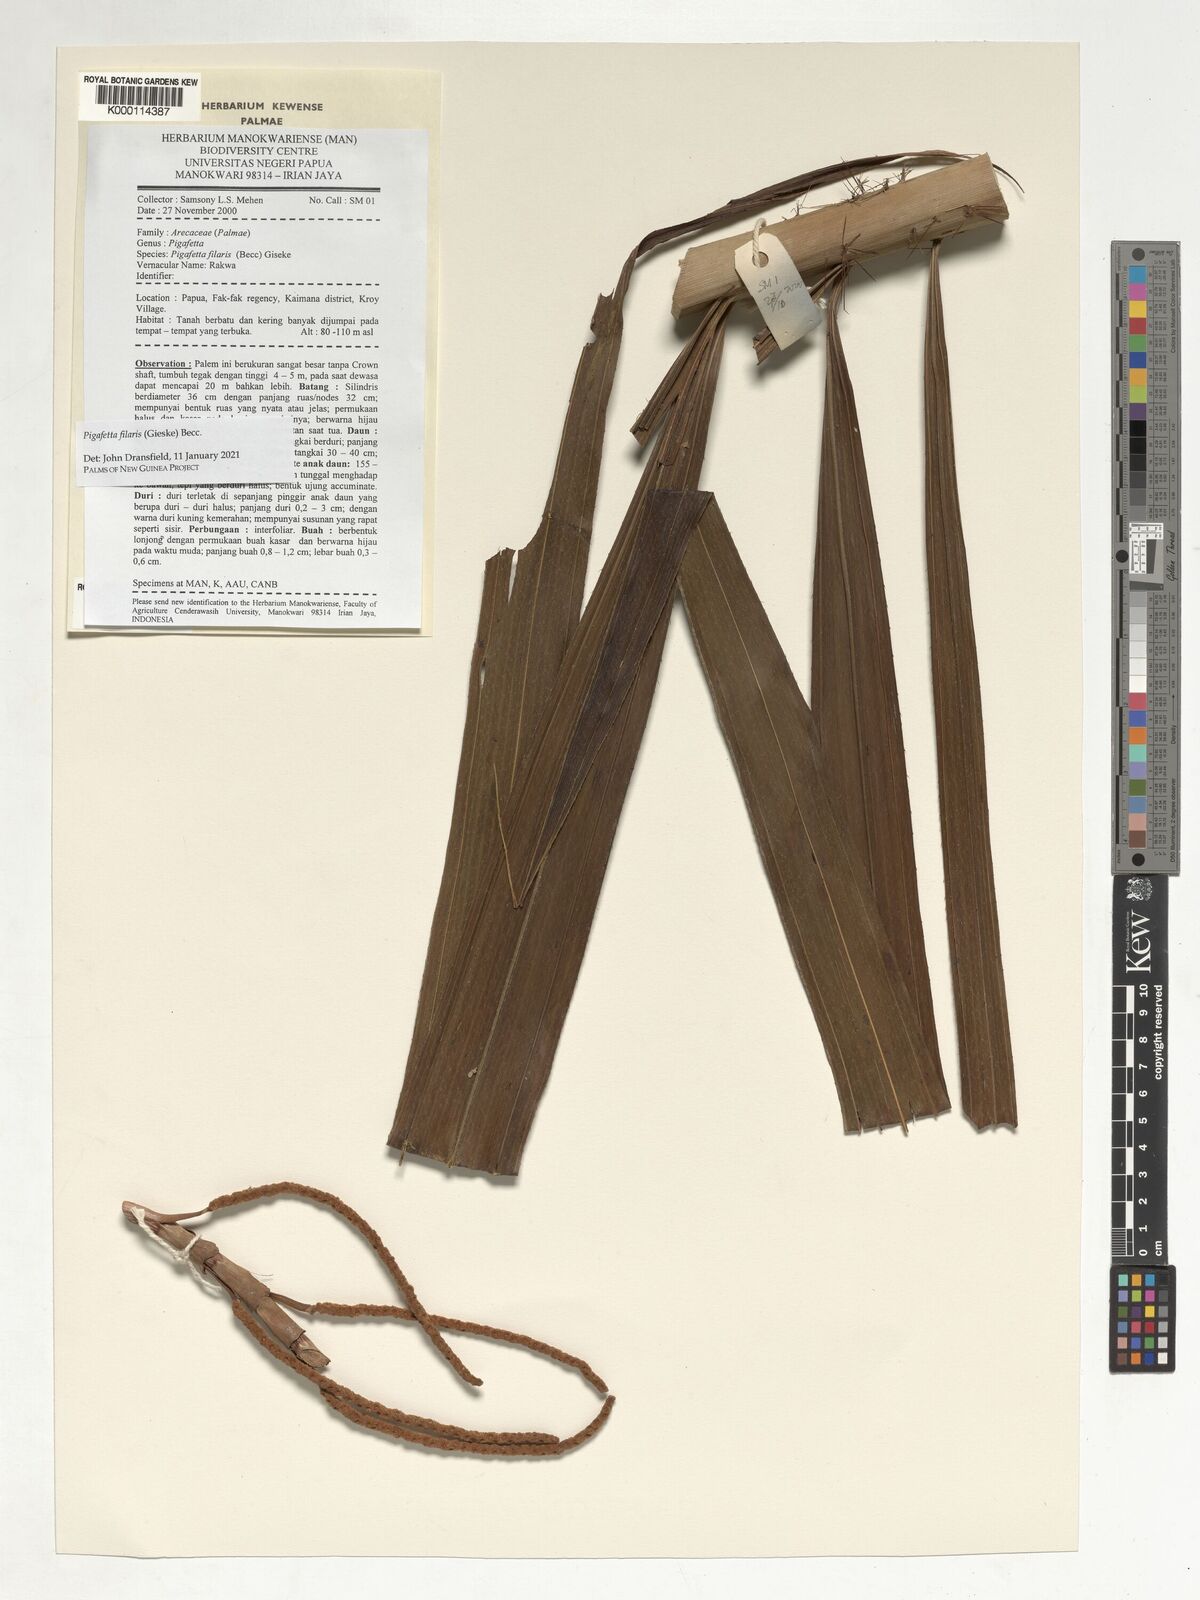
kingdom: Plantae
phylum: Tracheophyta
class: Liliopsida
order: Arecales
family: Arecaceae
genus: Pigafetta
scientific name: Pigafetta filaris
